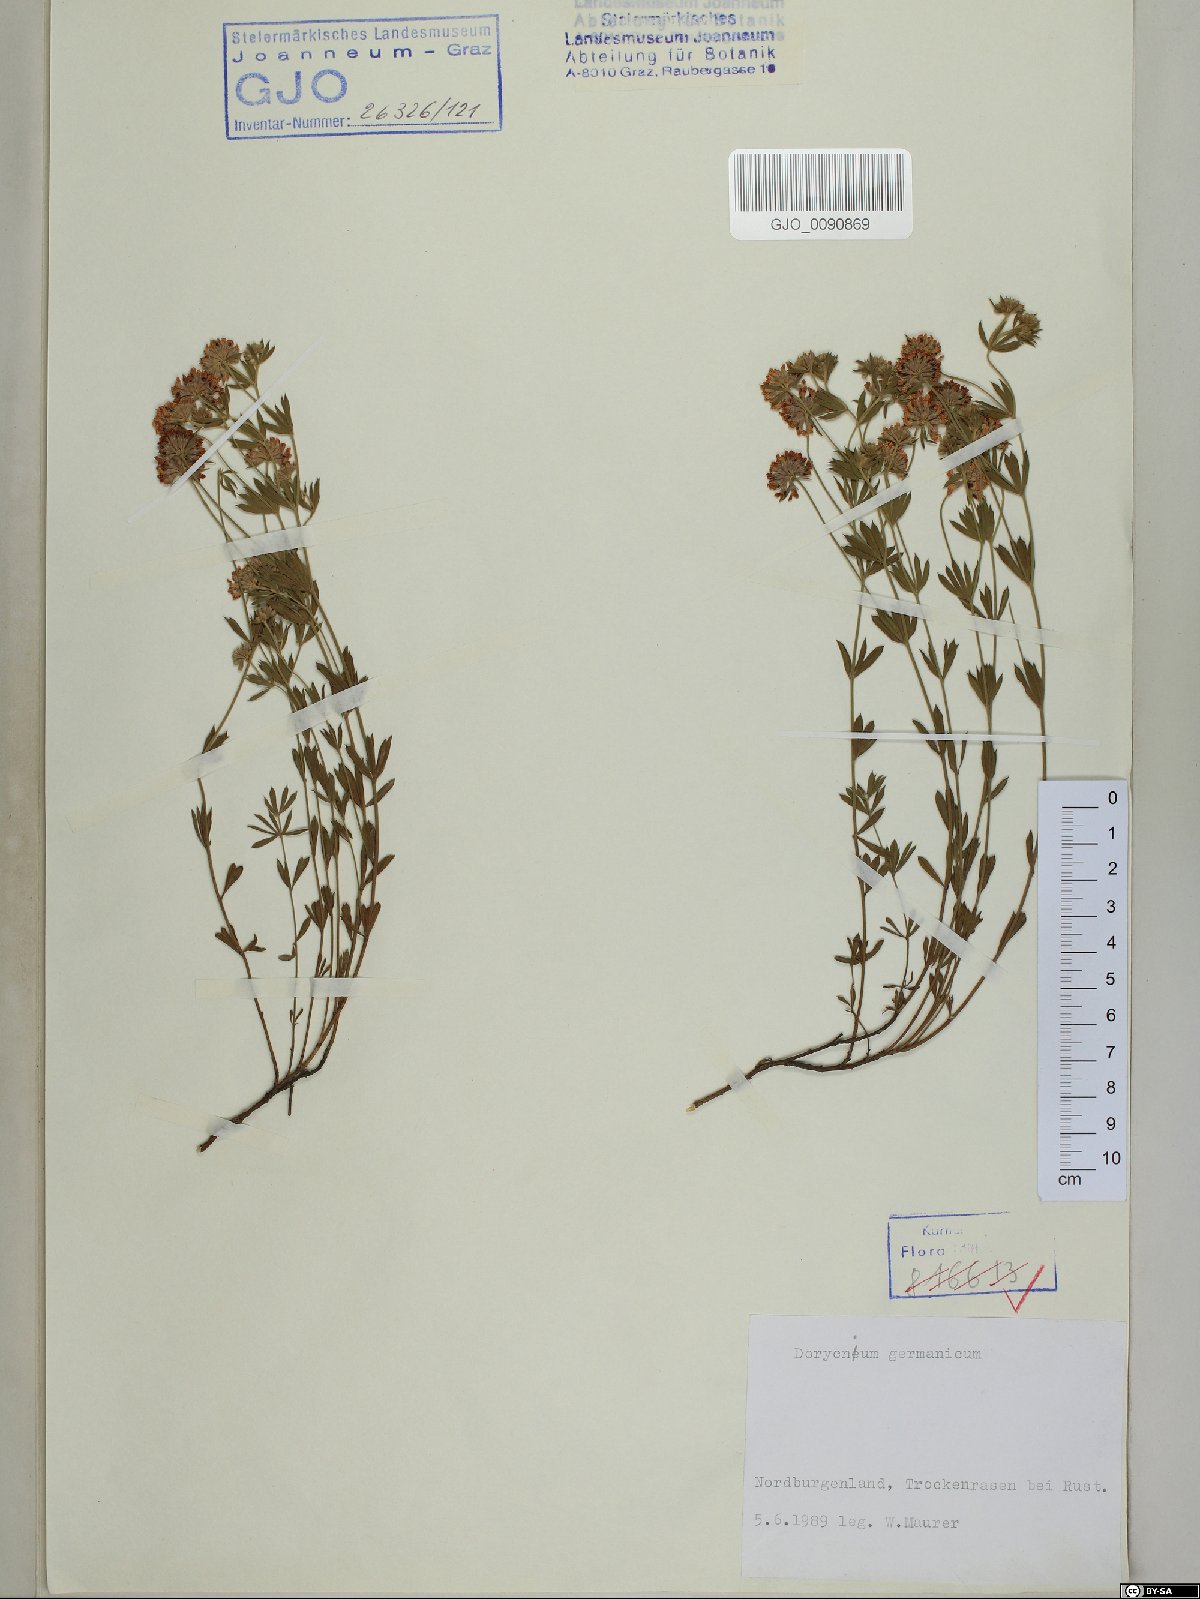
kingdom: Plantae
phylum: Tracheophyta
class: Magnoliopsida
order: Fabales
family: Fabaceae
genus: Lotus
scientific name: Lotus germanicus
